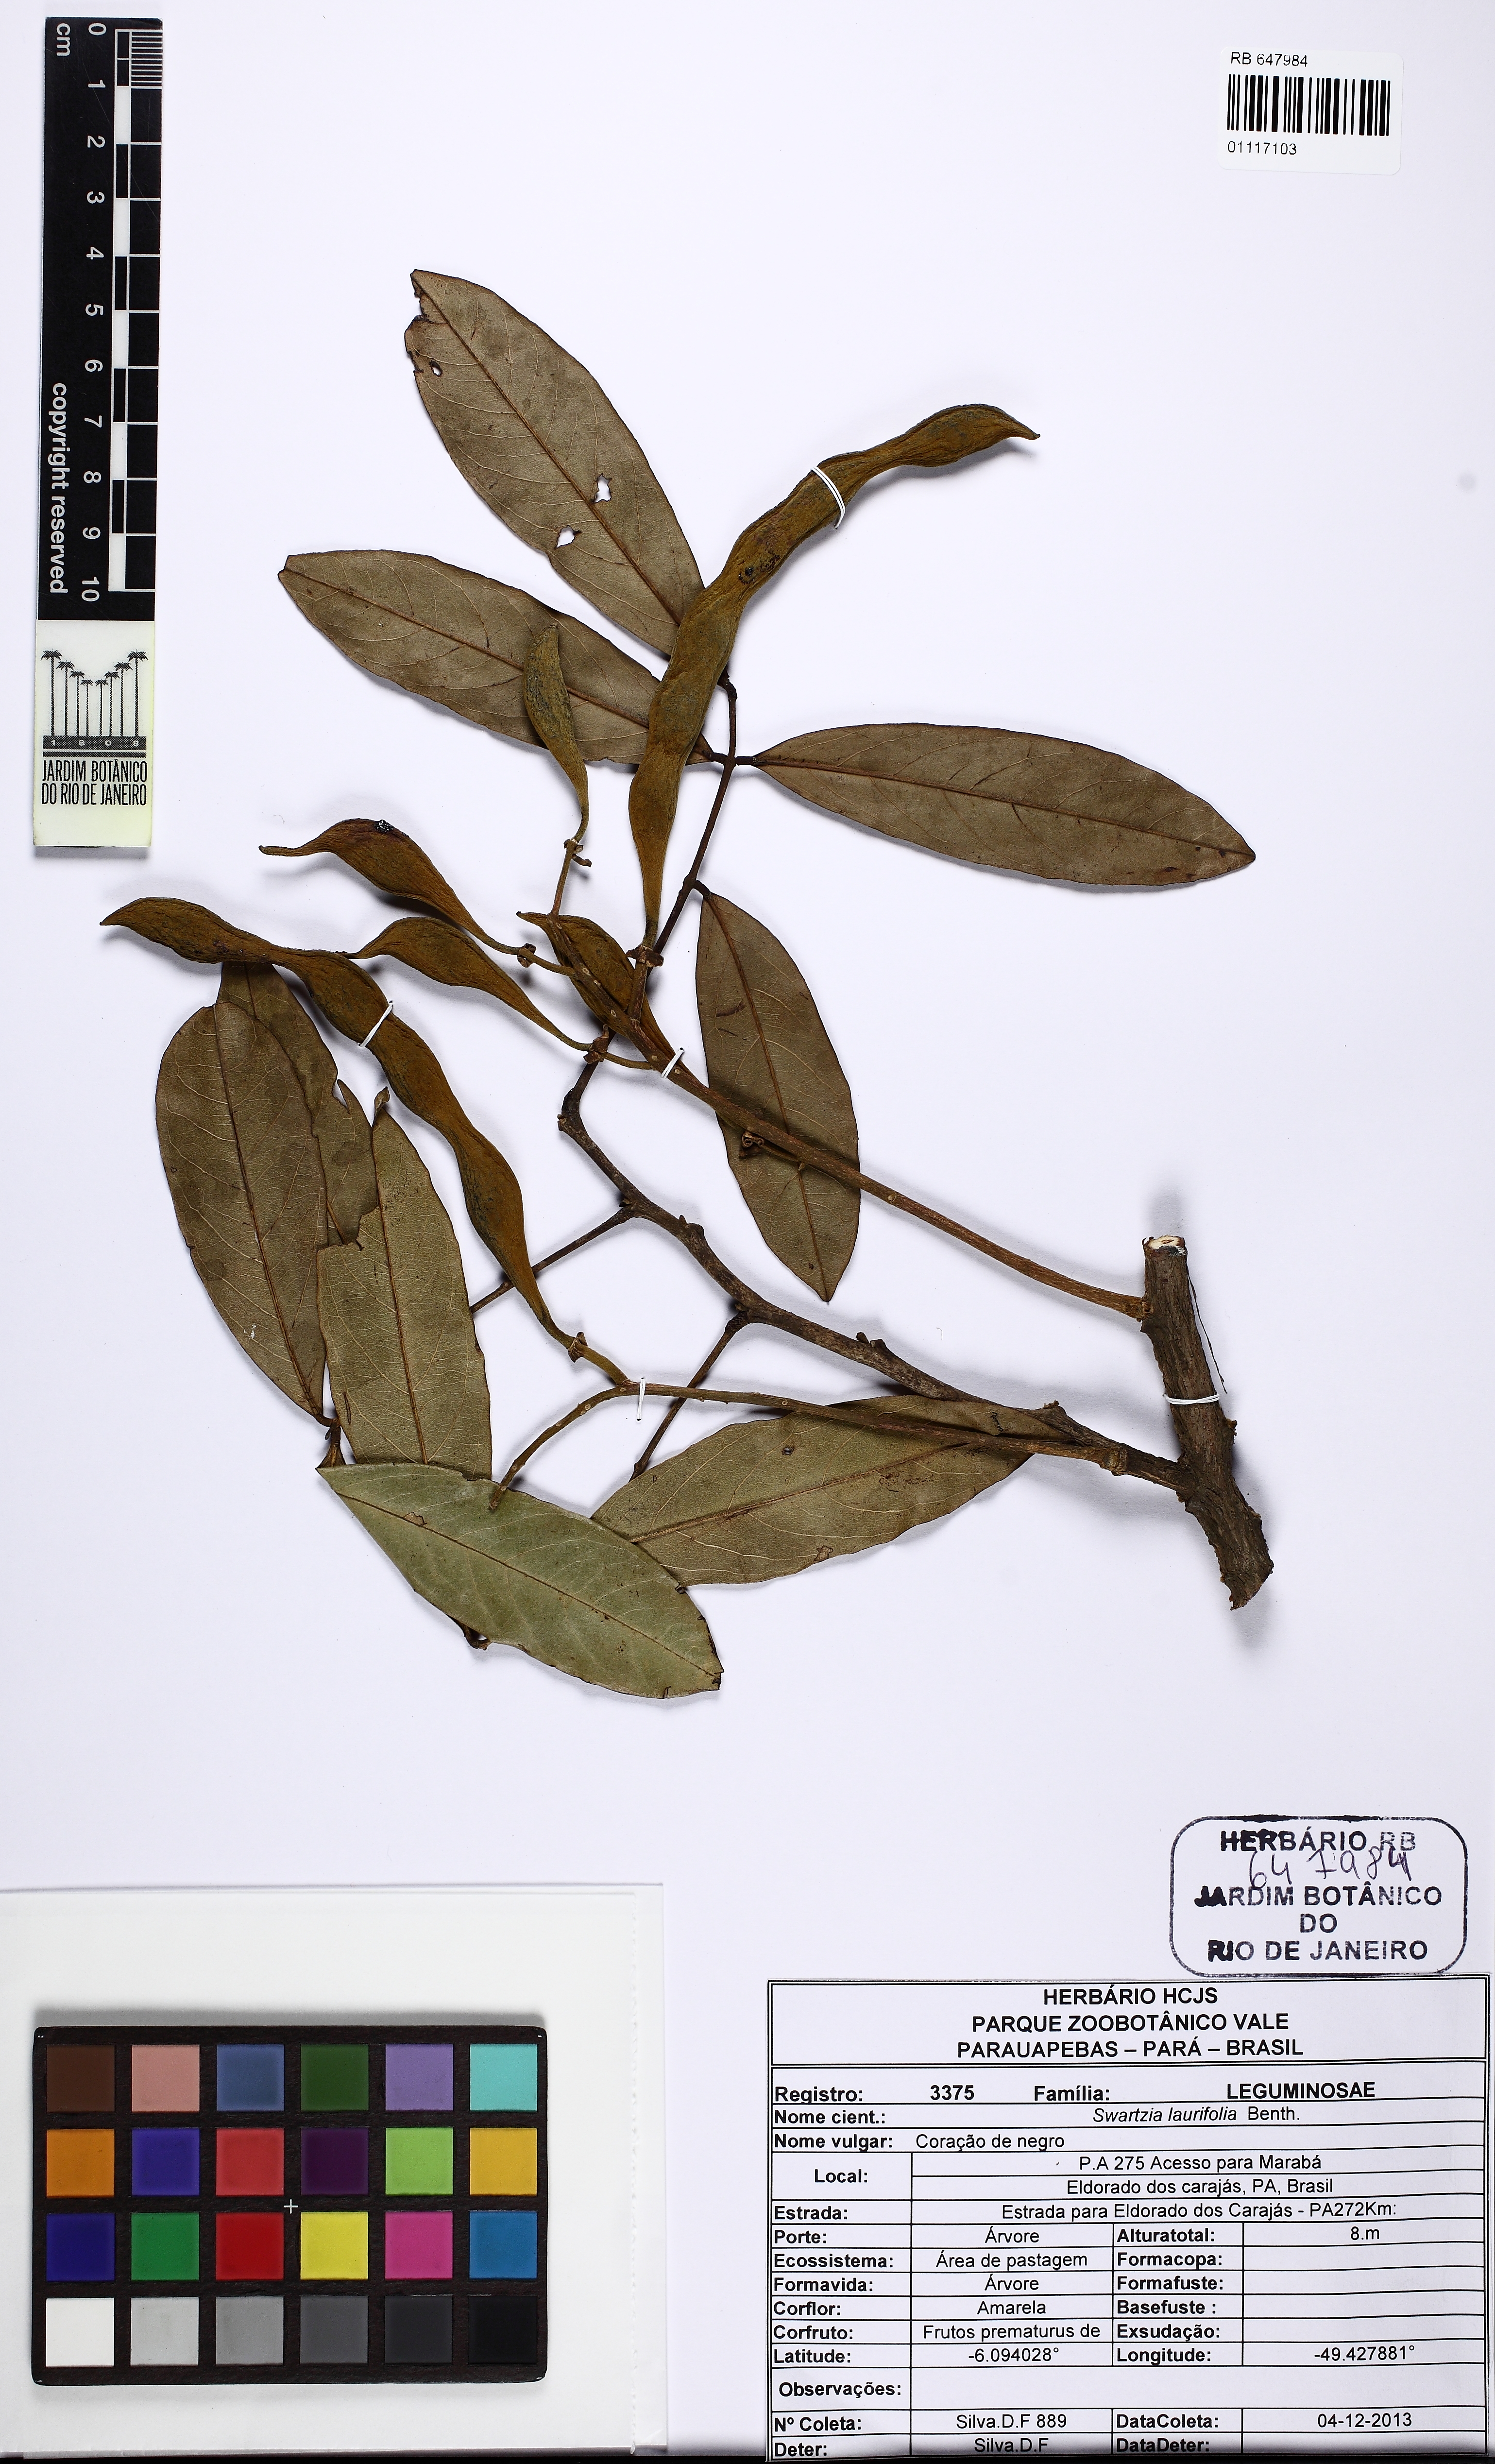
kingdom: Plantae
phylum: Tracheophyta
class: Magnoliopsida
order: Fabales
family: Fabaceae
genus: Swartzia
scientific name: Swartzia laurifolia
